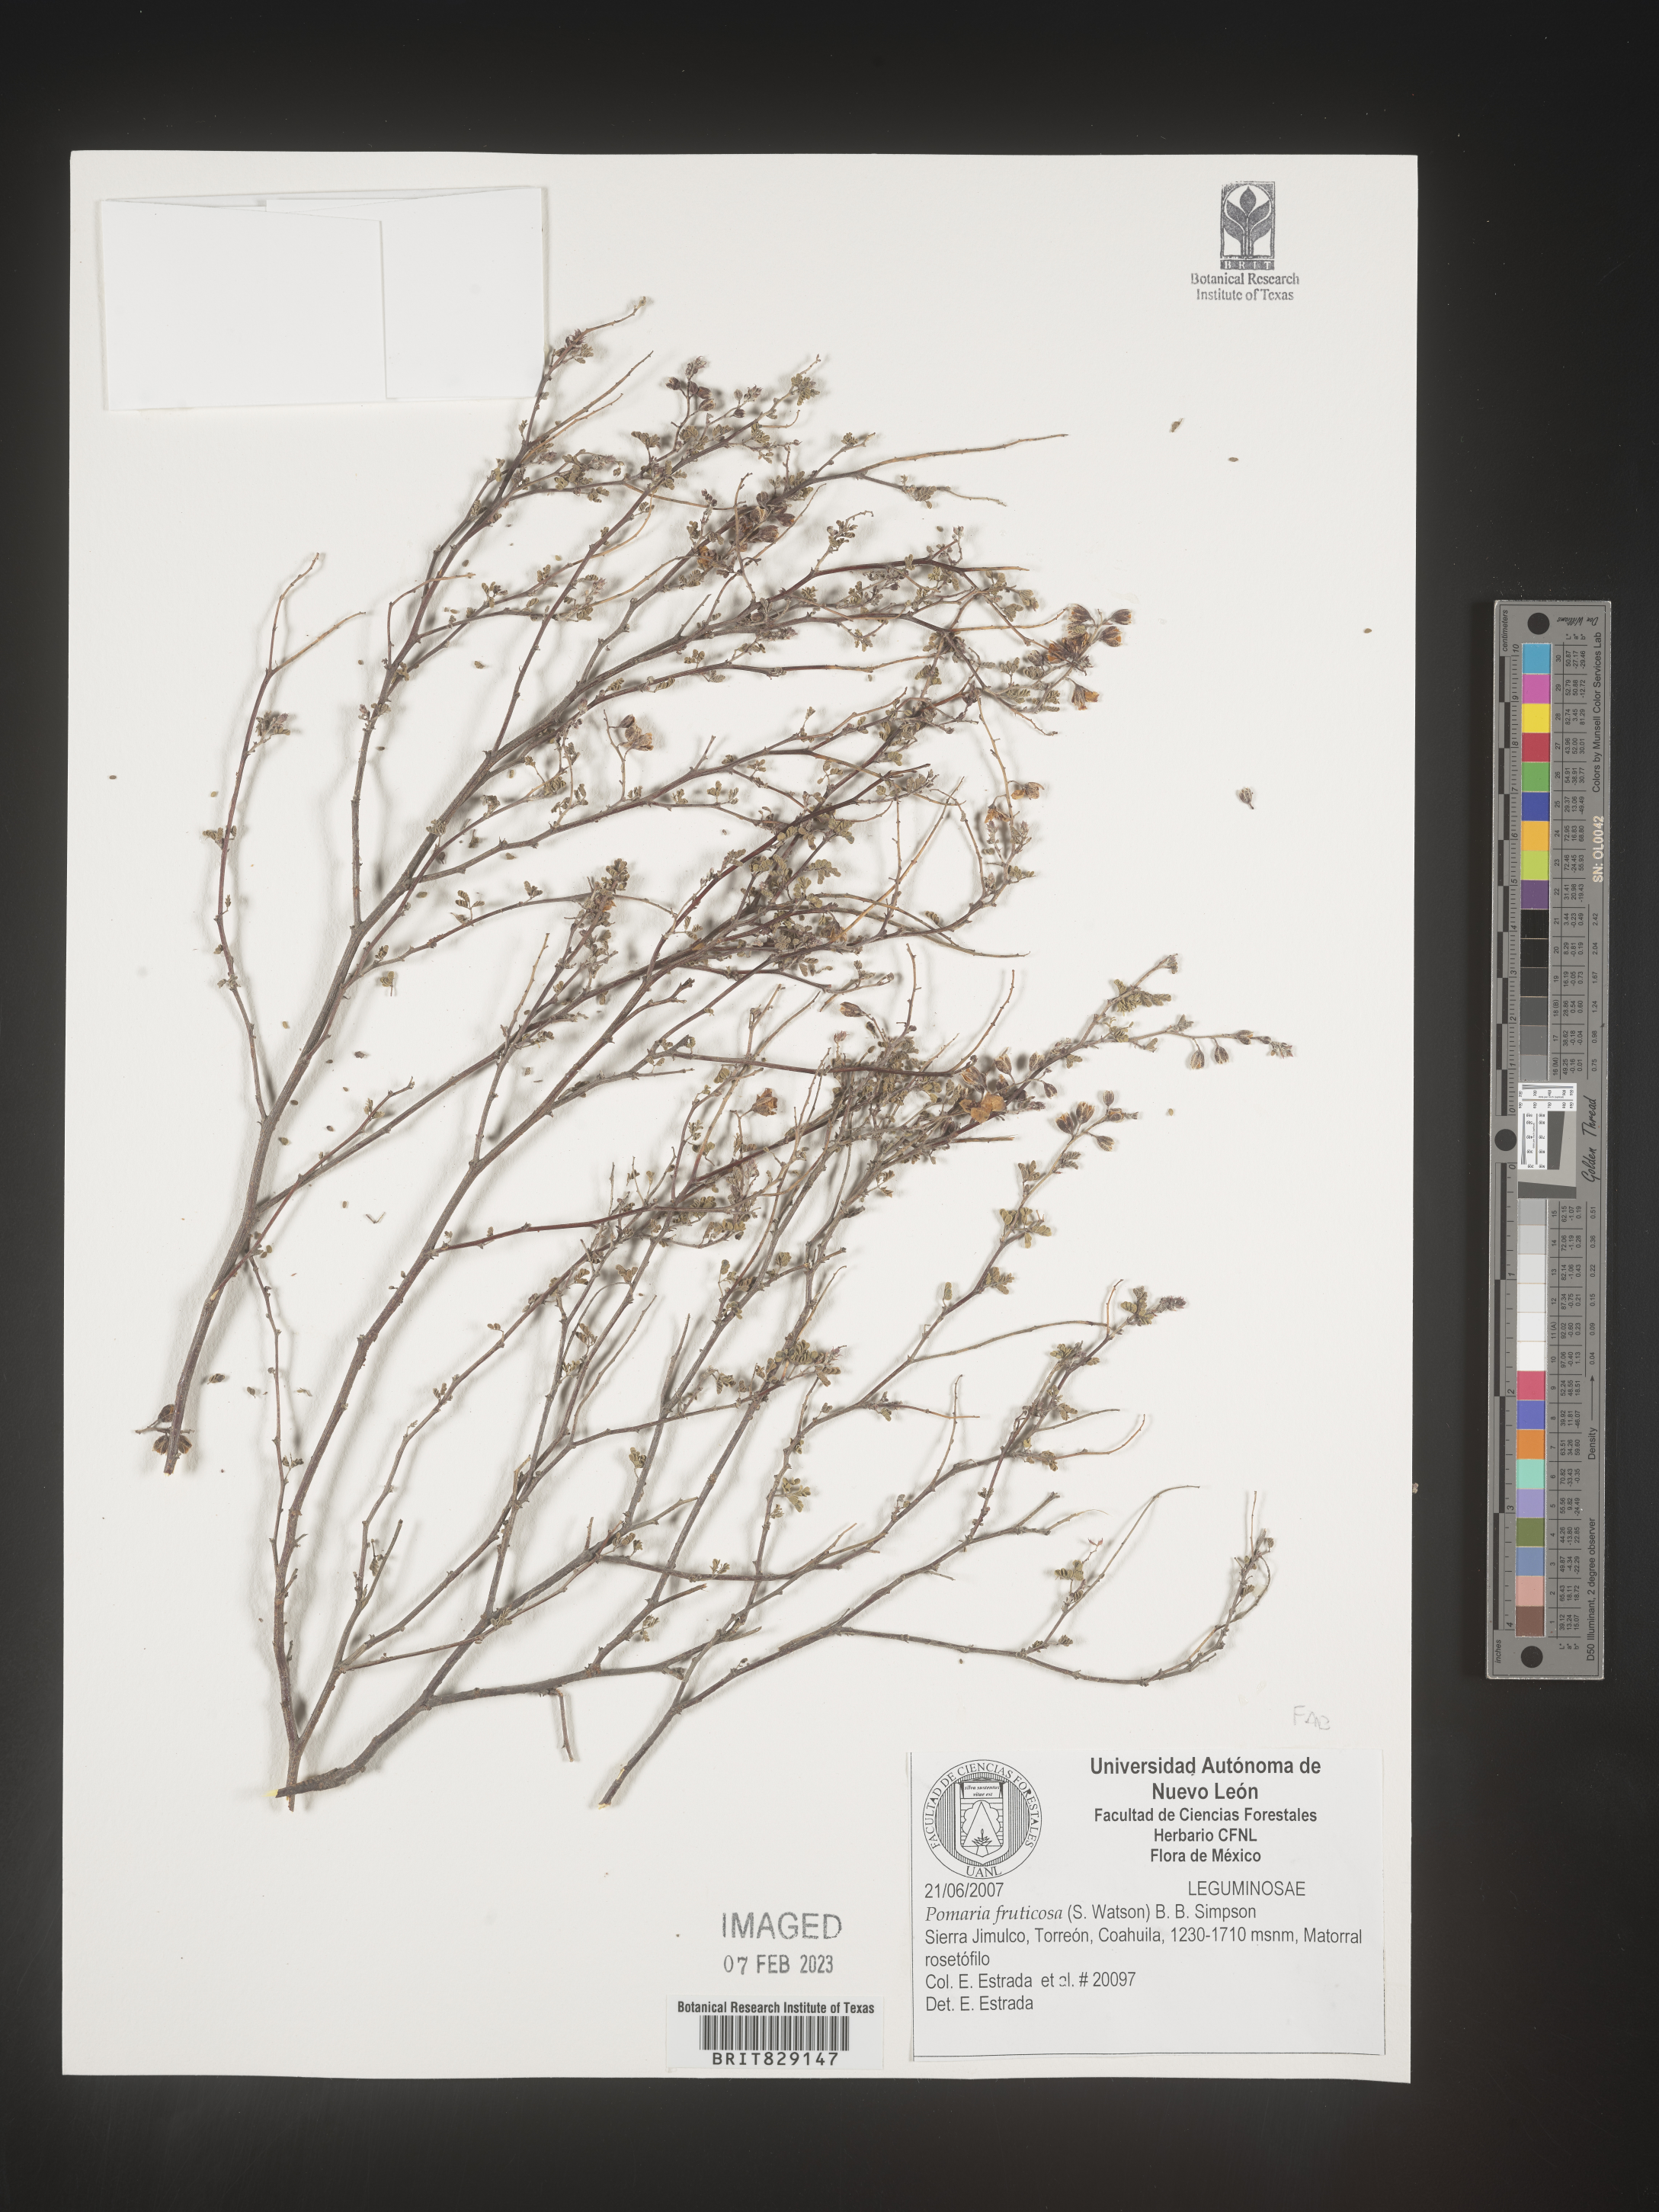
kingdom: Plantae
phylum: Tracheophyta
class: Magnoliopsida
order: Fabales
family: Fabaceae
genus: Pomaria
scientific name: Pomaria
